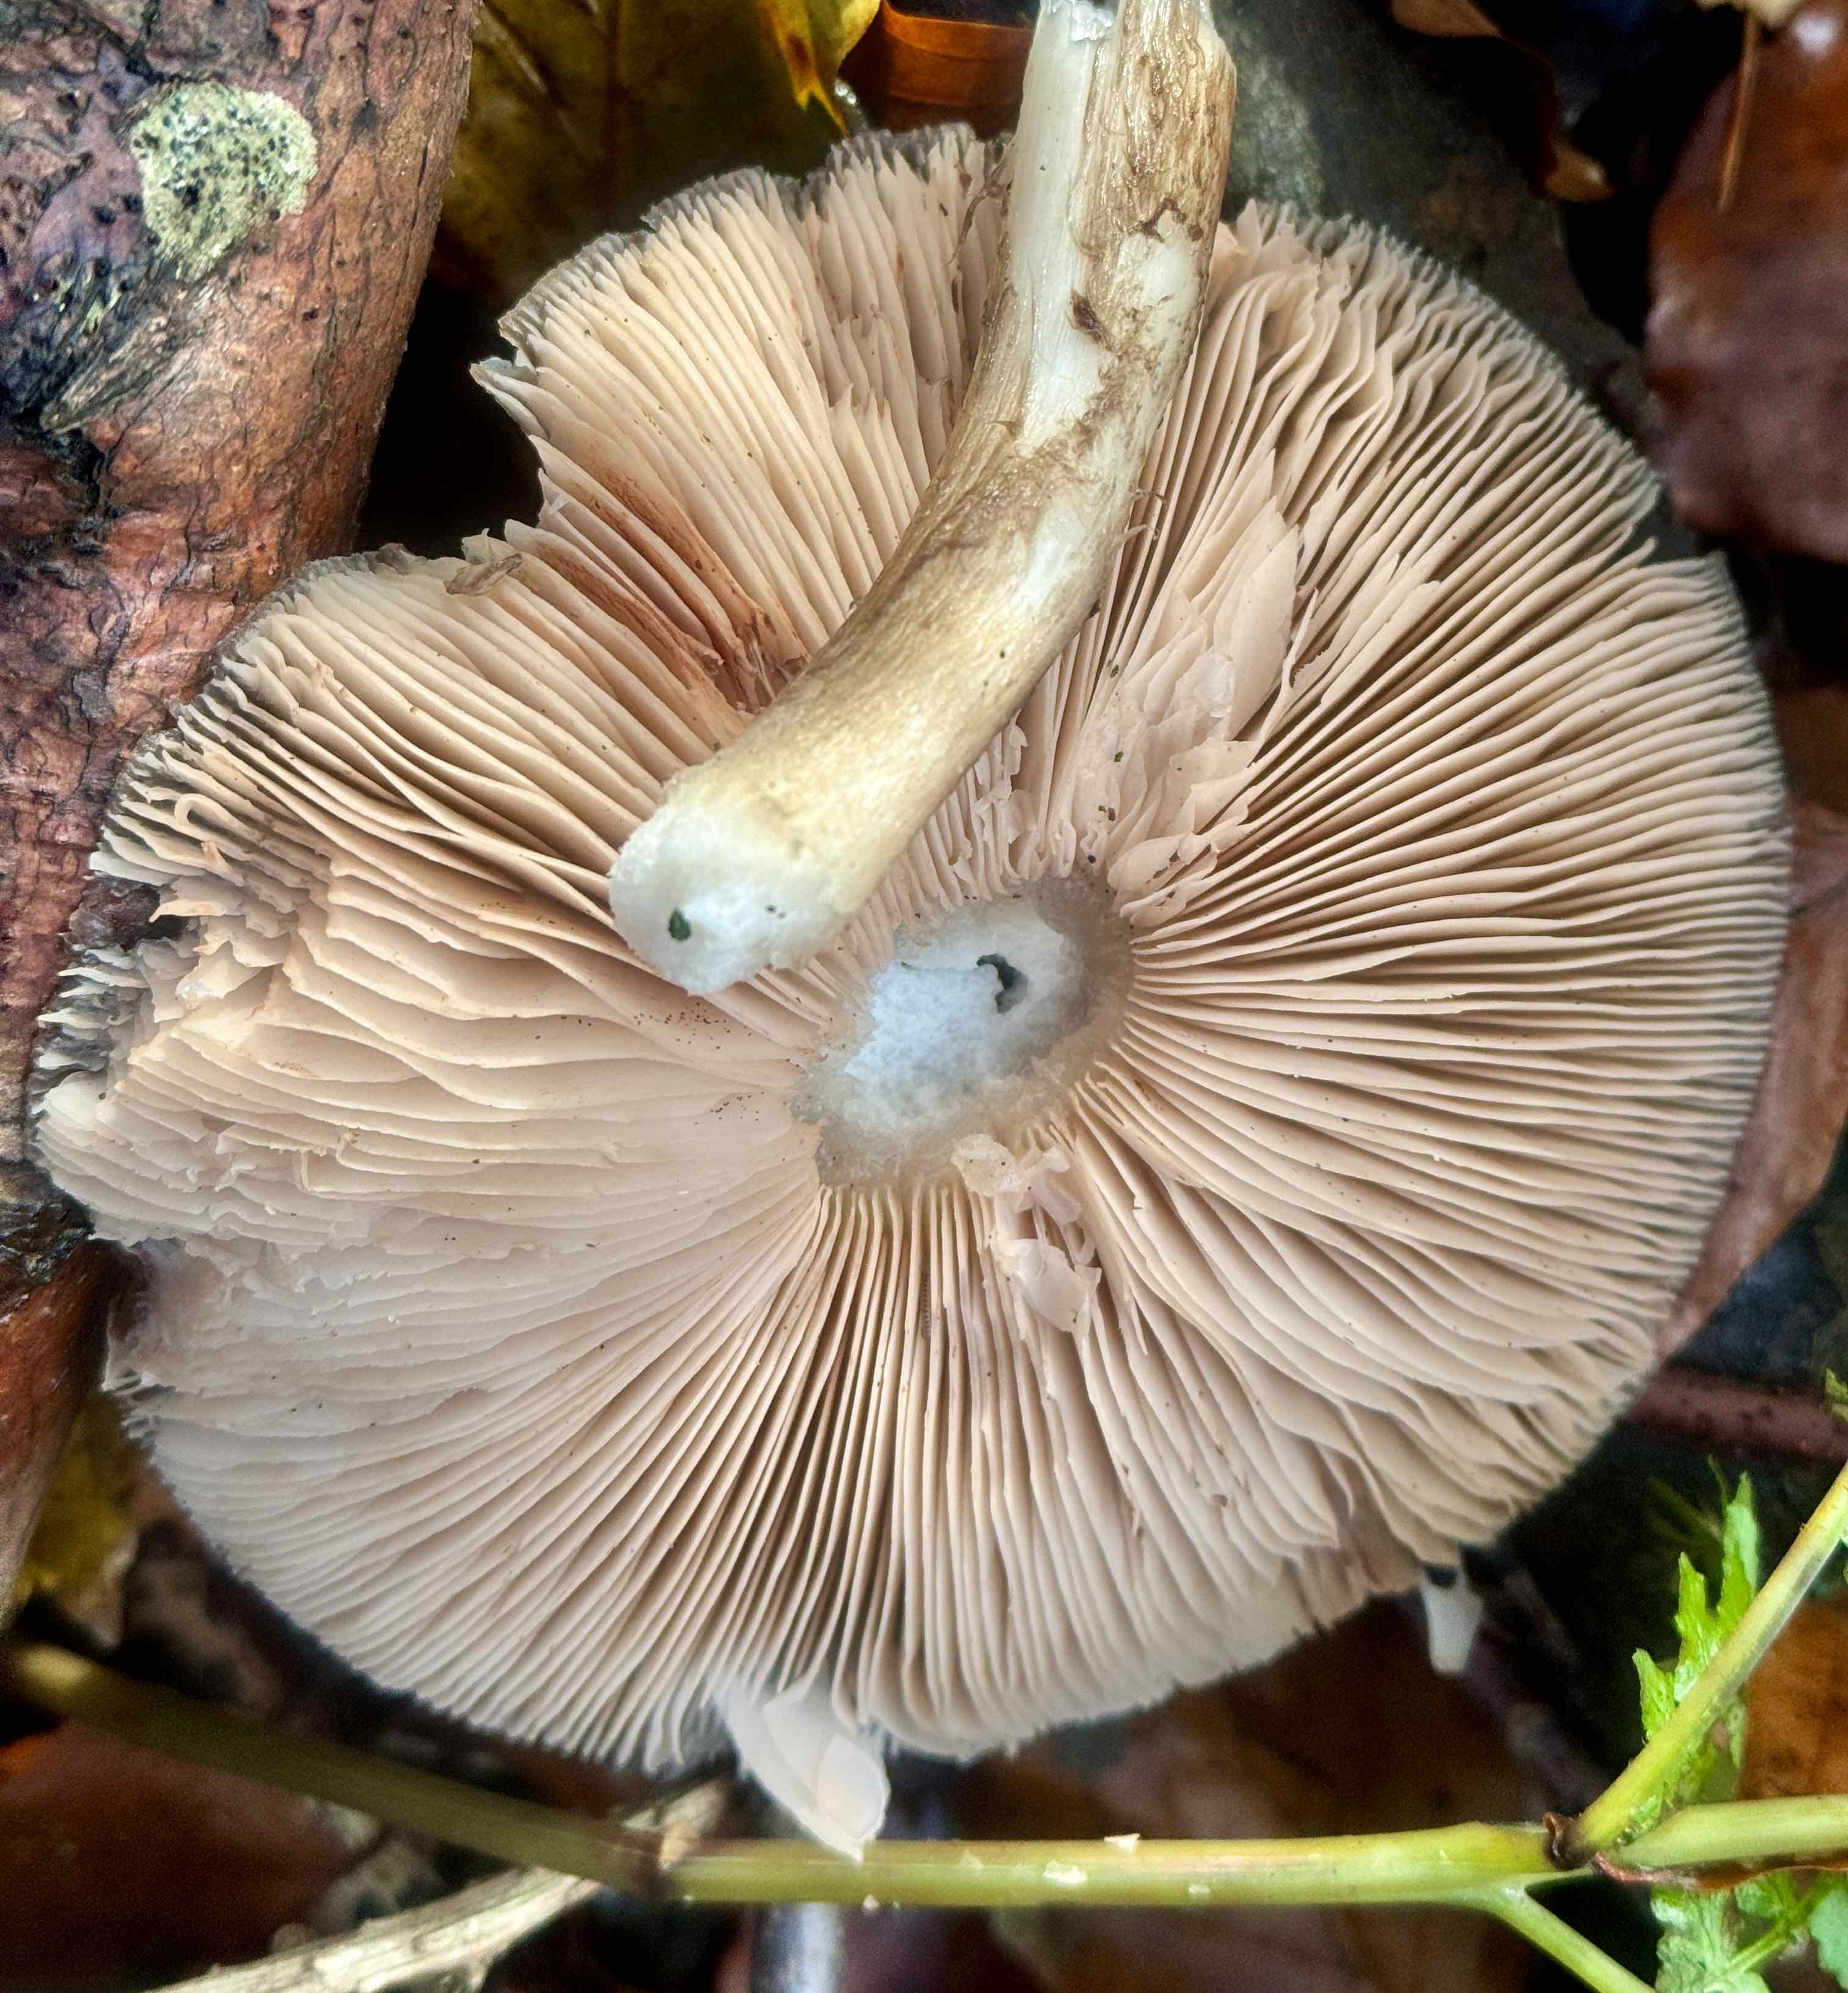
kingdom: Fungi
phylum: Basidiomycota
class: Agaricomycetes
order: Agaricales
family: Pluteaceae
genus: Pluteus
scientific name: Pluteus cervinus
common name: sodfarvet skærmhat
